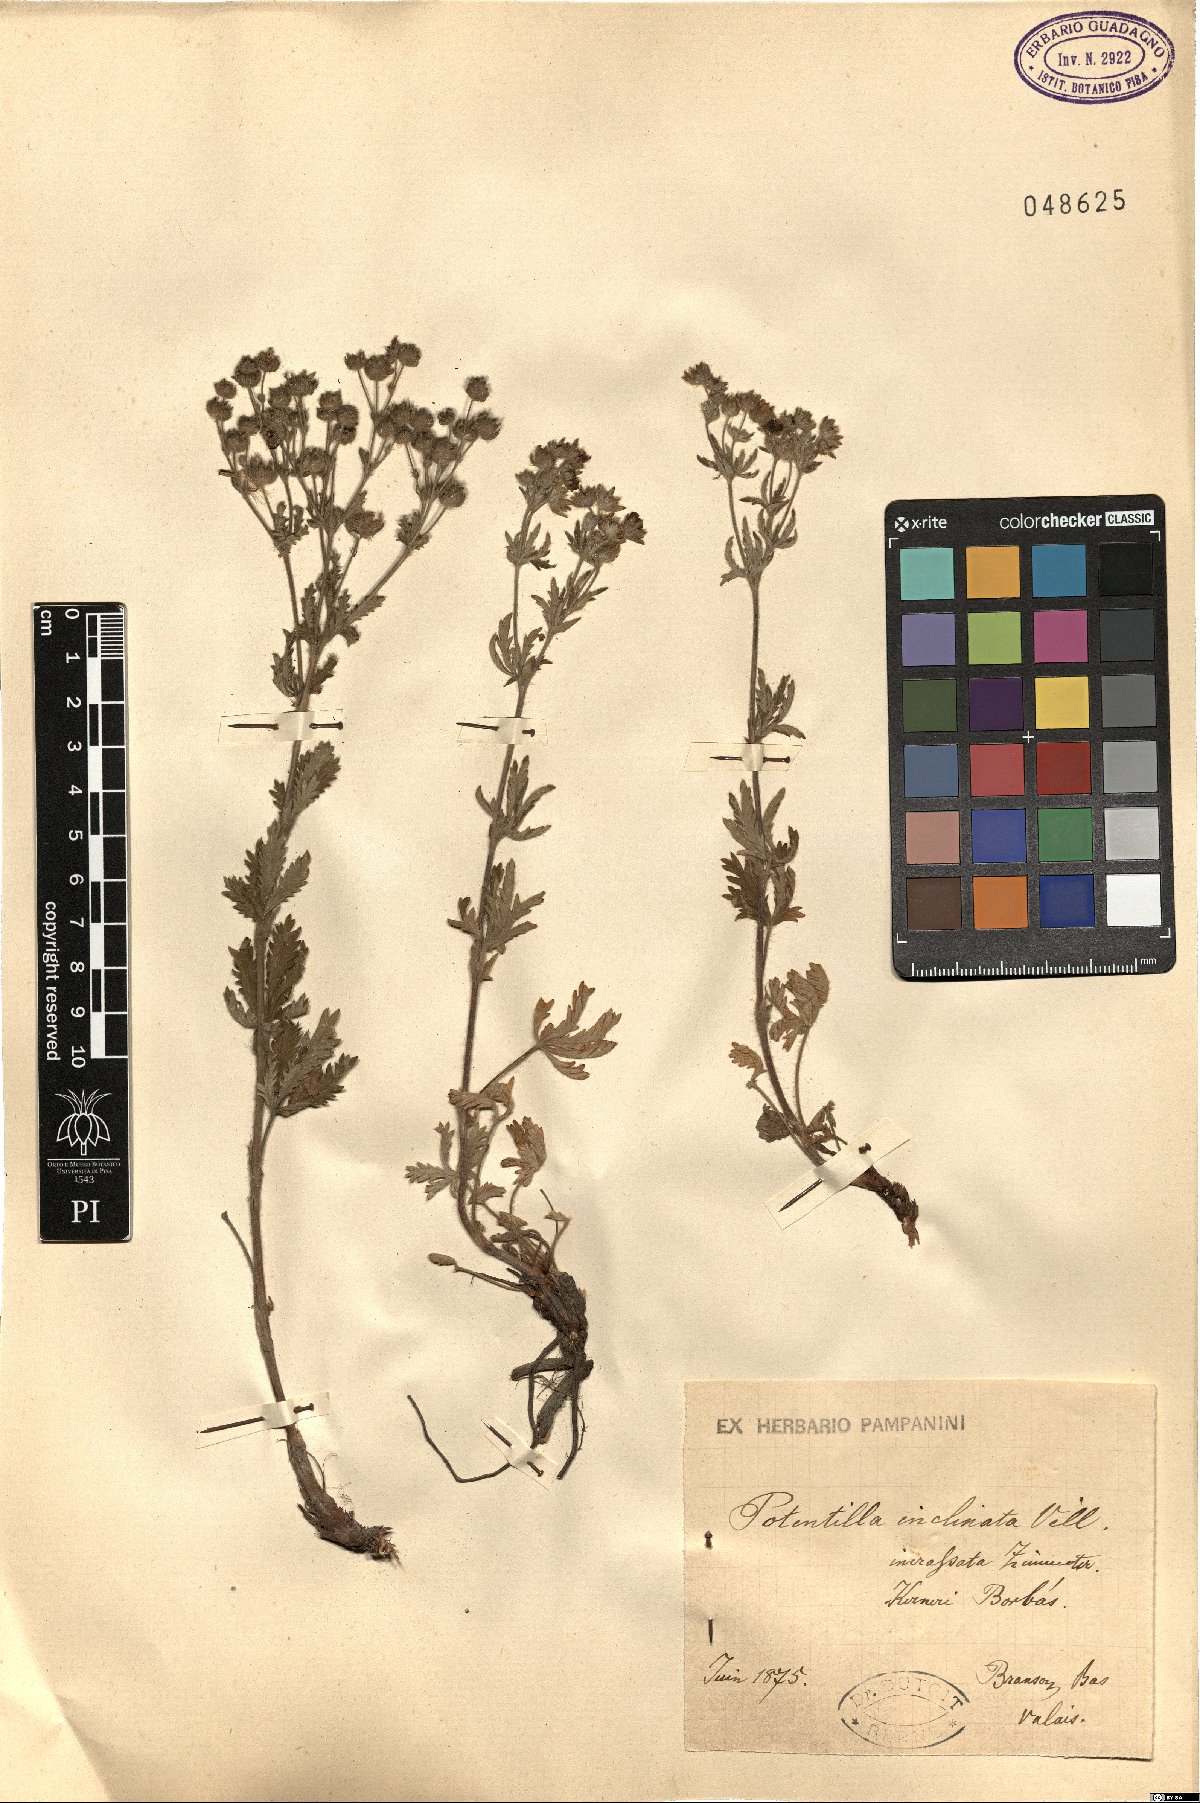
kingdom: Plantae
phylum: Tracheophyta
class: Magnoliopsida
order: Rosales
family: Rosaceae
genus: Potentilla
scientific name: Potentilla inclinata
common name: Grey cinquefoil
